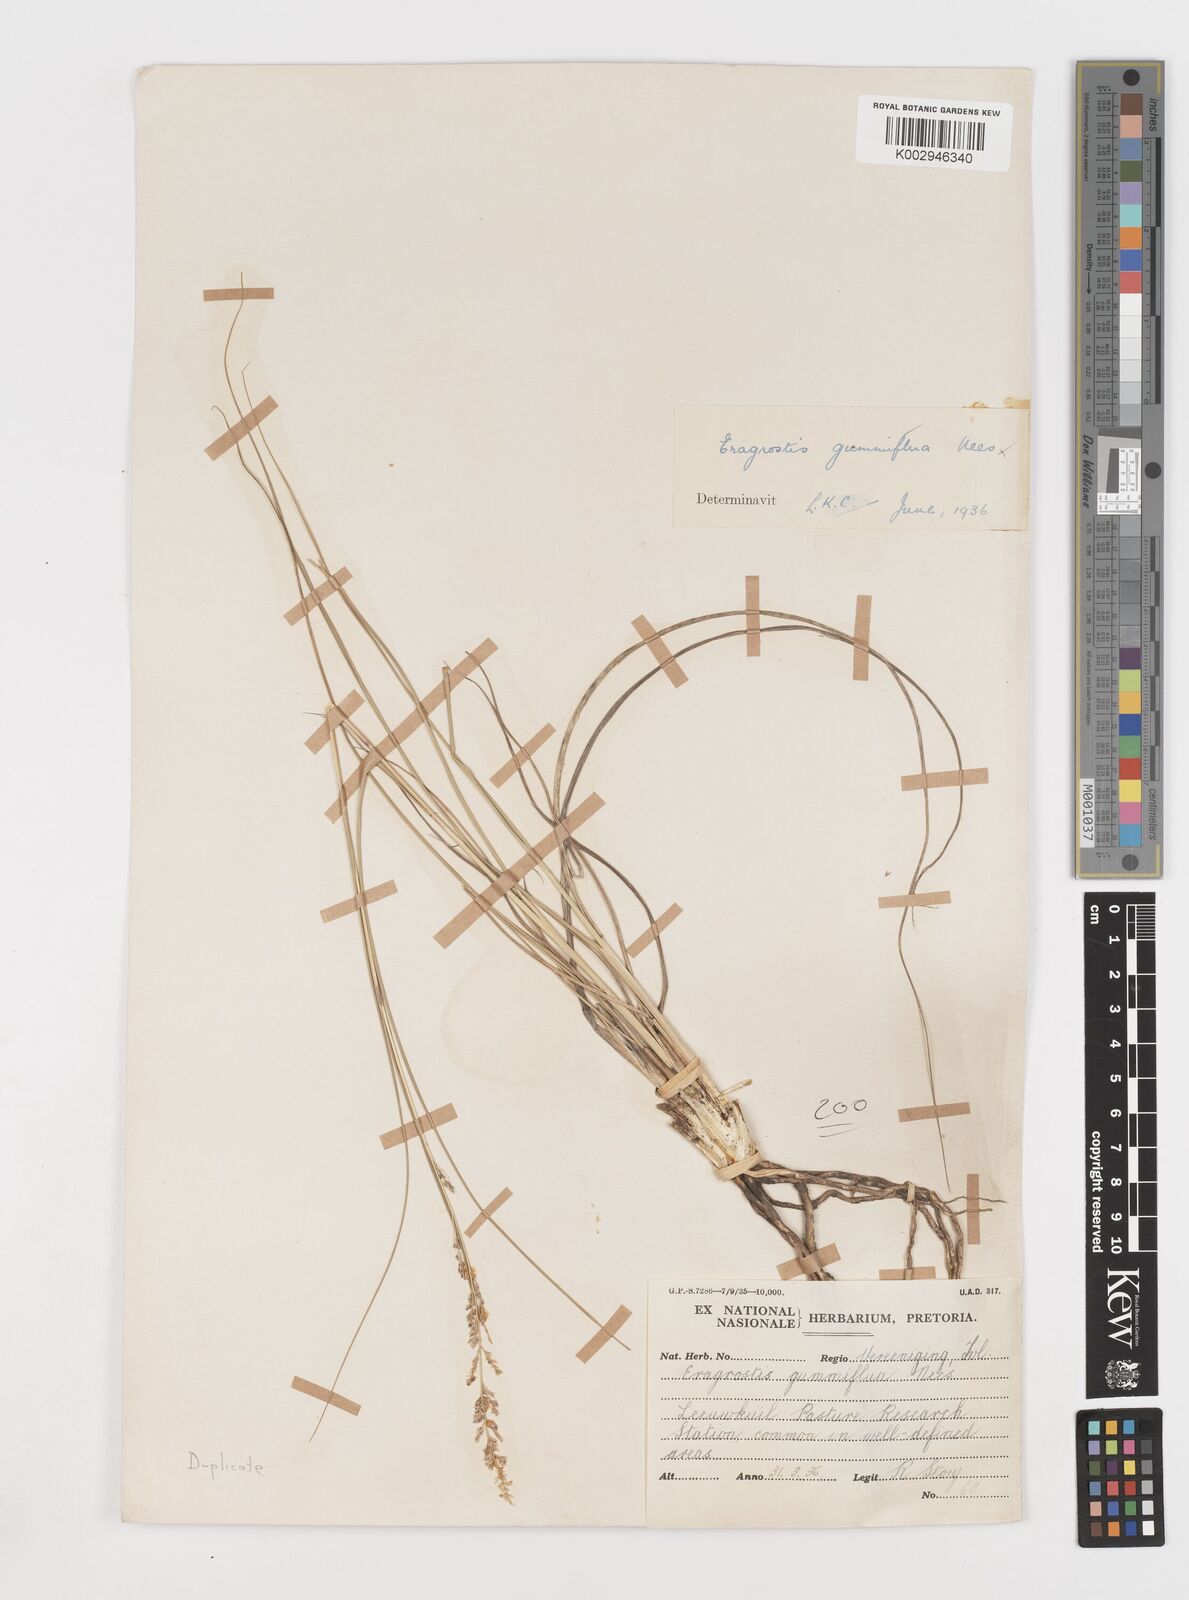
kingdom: Plantae
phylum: Tracheophyta
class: Liliopsida
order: Poales
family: Poaceae
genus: Eragrostis
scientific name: Eragrostis gummiflua
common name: Gum grass
